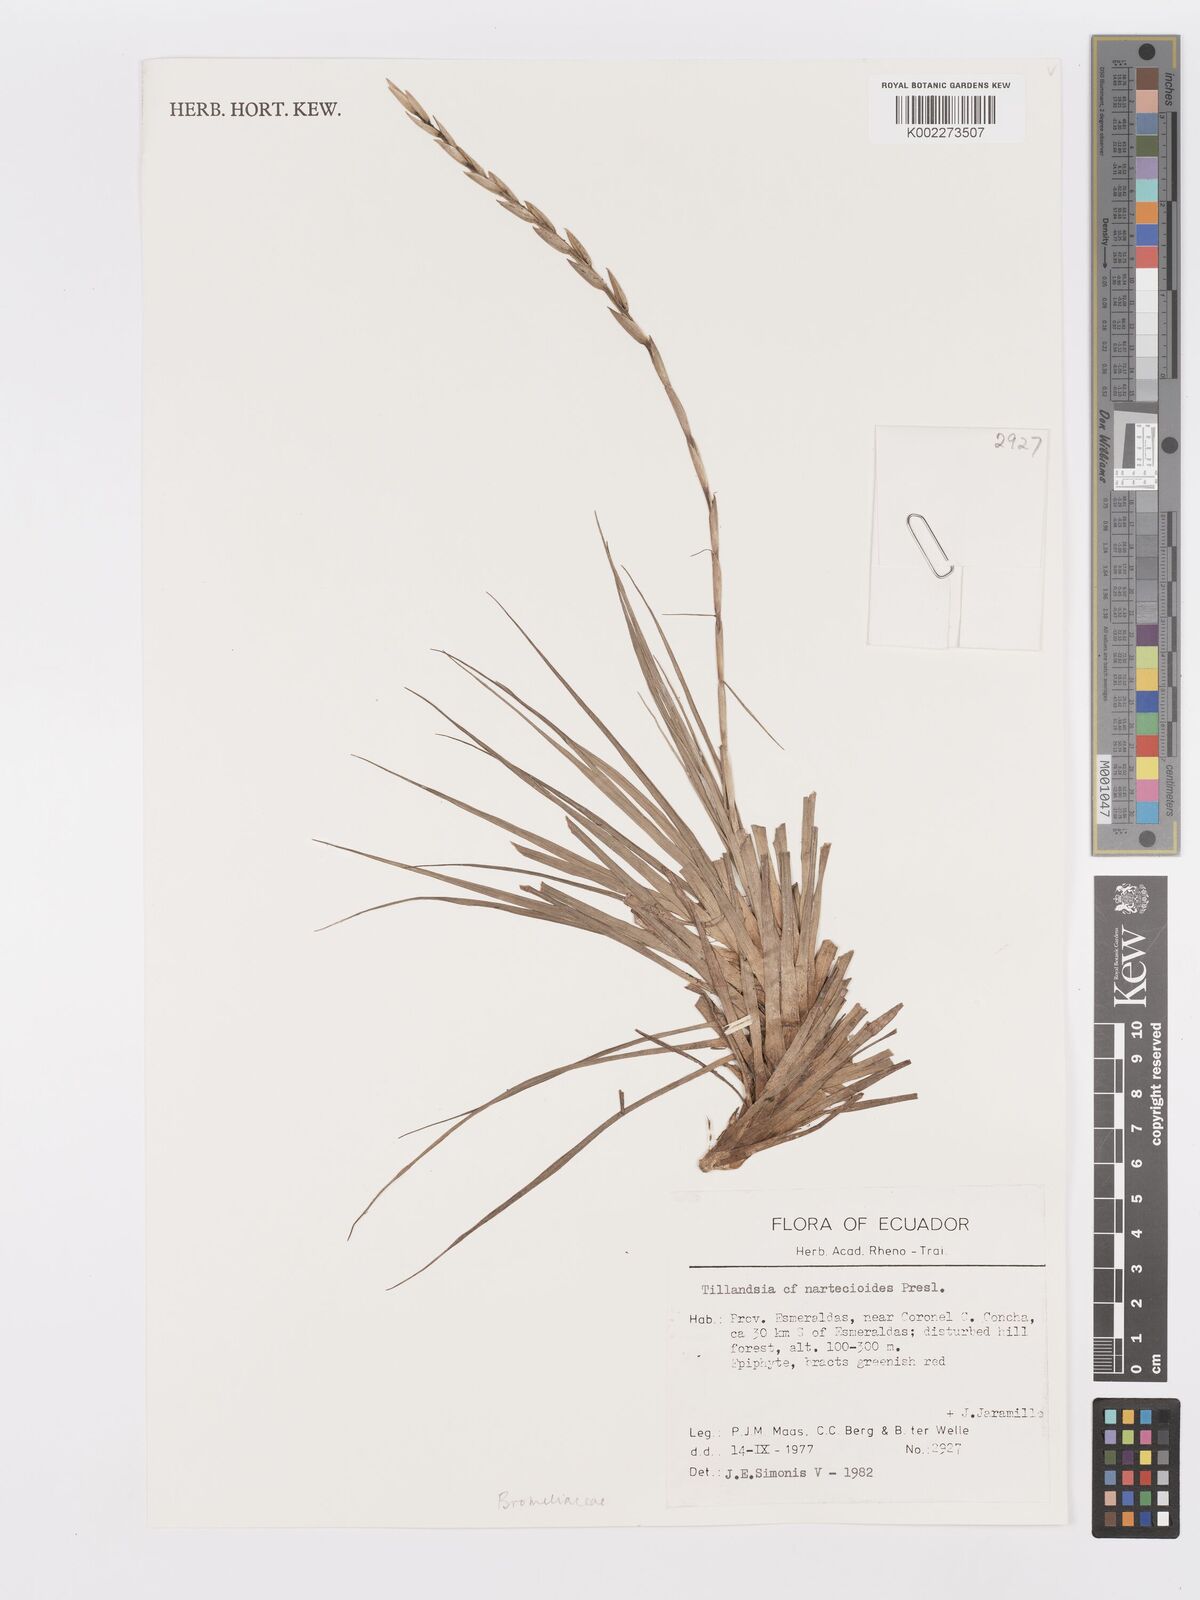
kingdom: Plantae
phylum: Tracheophyta
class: Liliopsida
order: Poales
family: Bromeliaceae
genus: Lemeltonia
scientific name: Lemeltonia narthecioides
